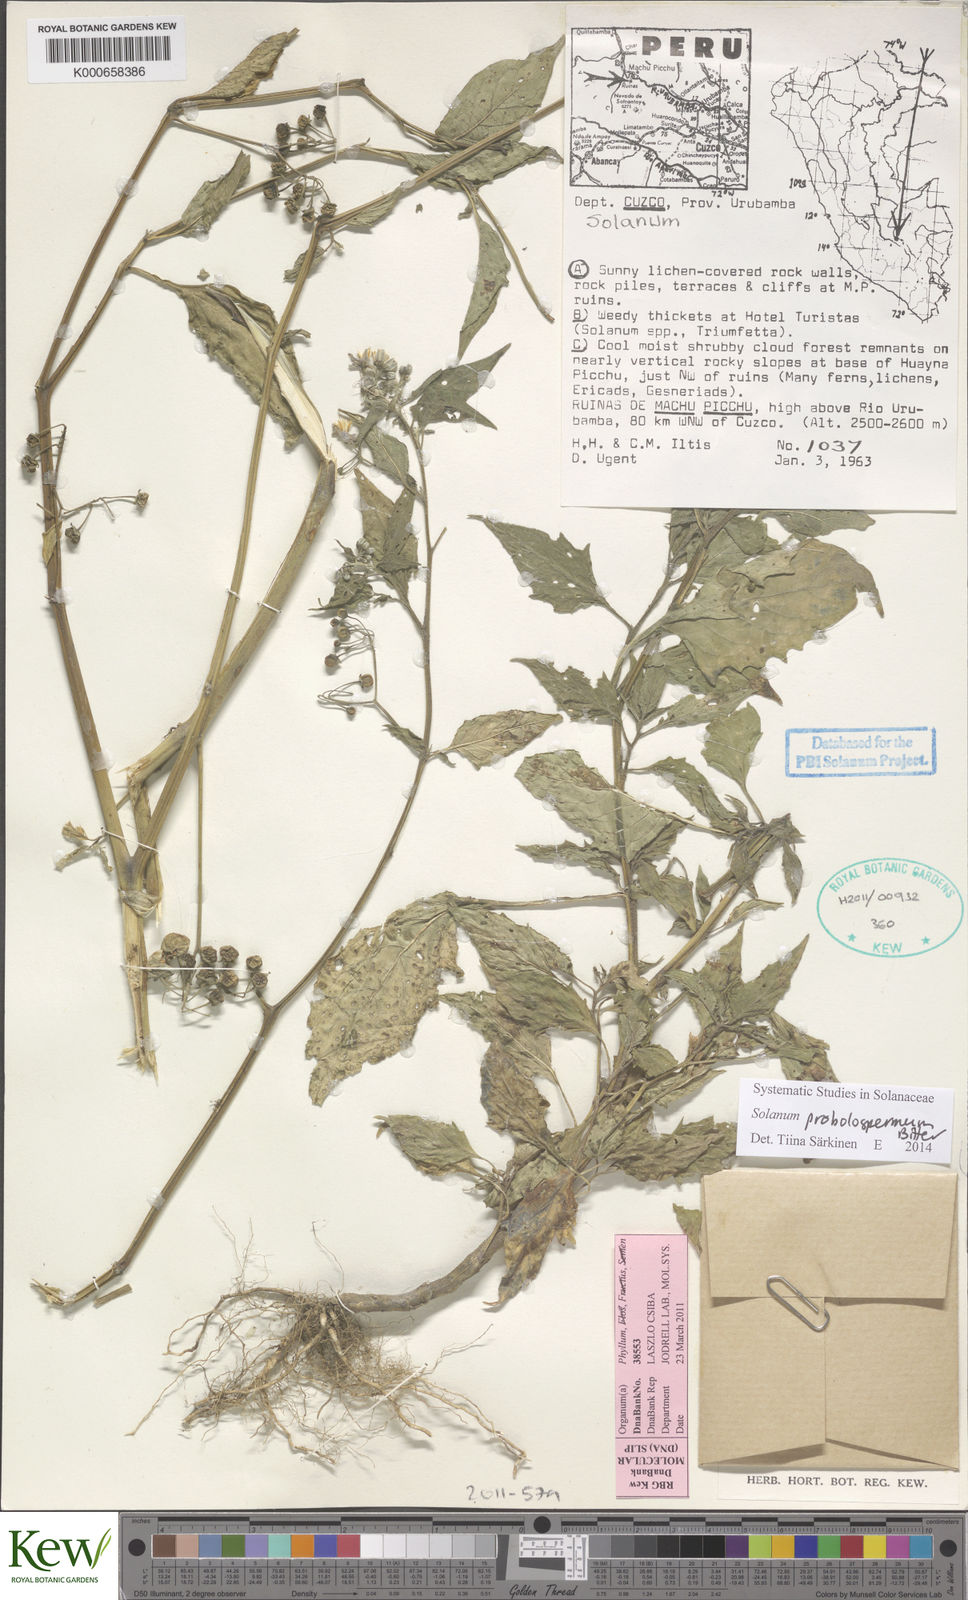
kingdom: Plantae
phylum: Tracheophyta
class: Magnoliopsida
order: Solanales
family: Solanaceae
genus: Solanum
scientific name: Solanum gonocladum
